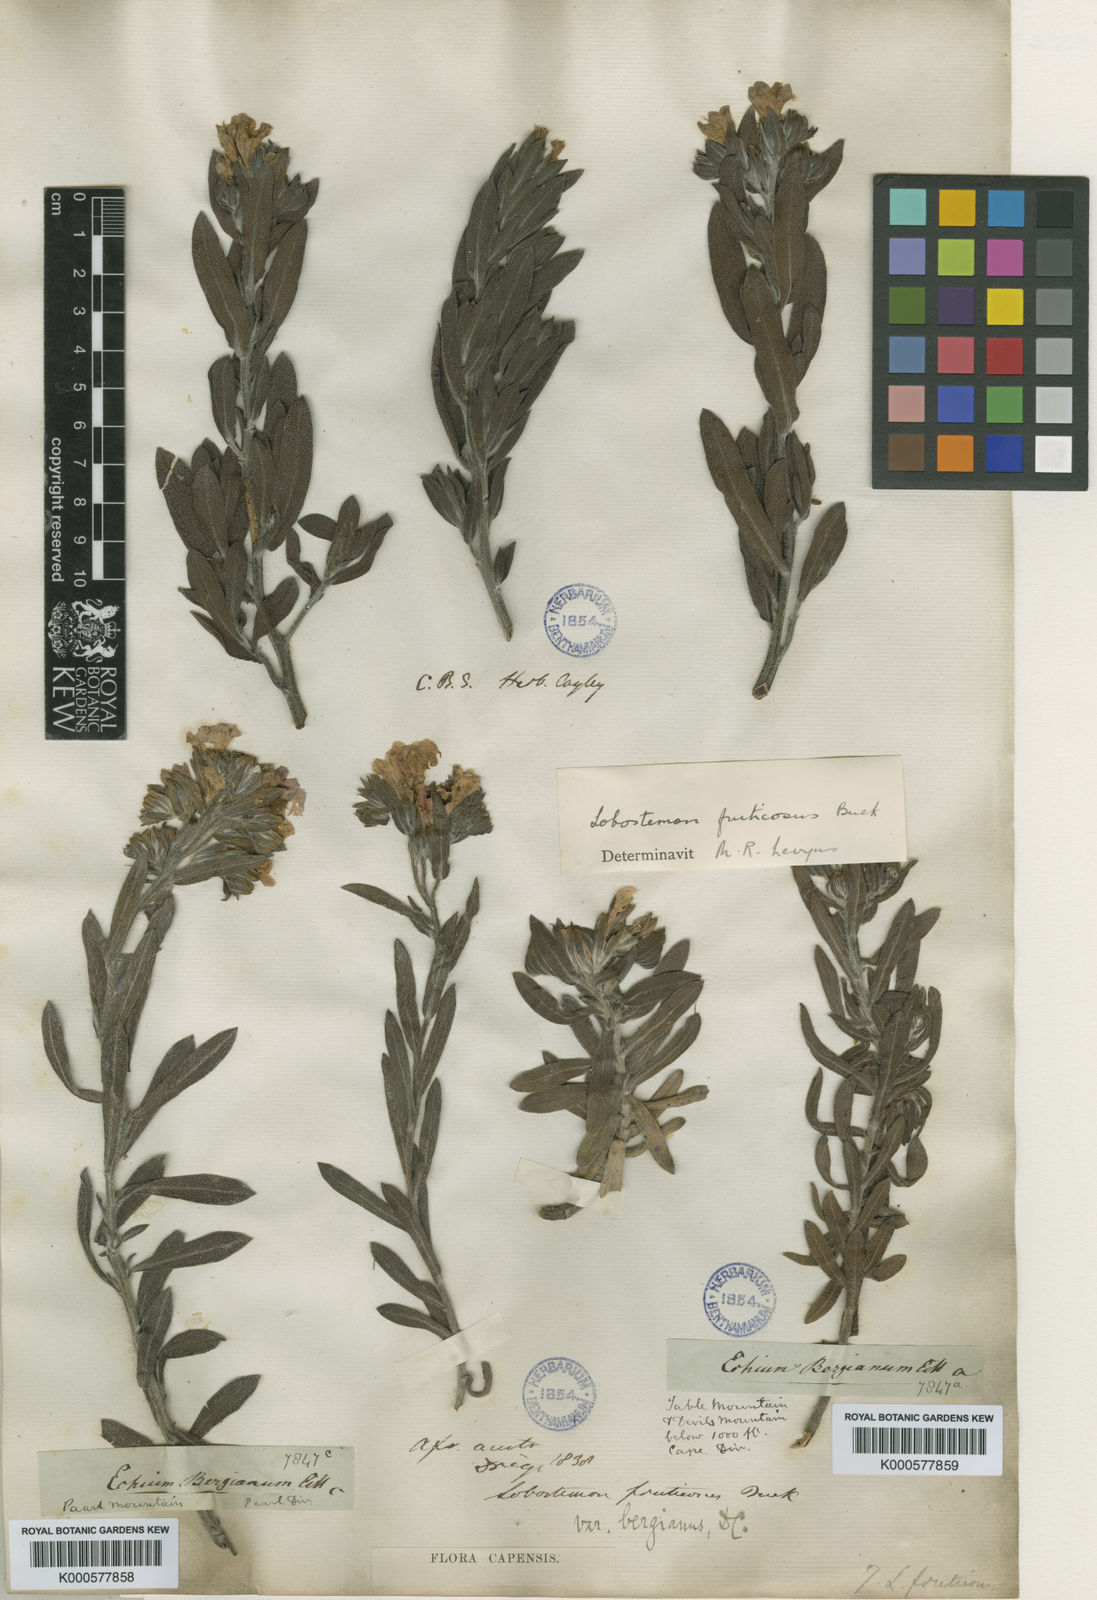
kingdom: Plantae
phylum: Tracheophyta
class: Magnoliopsida
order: Boraginales
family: Boraginaceae
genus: Lobostemon
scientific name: Lobostemon fruticosus
